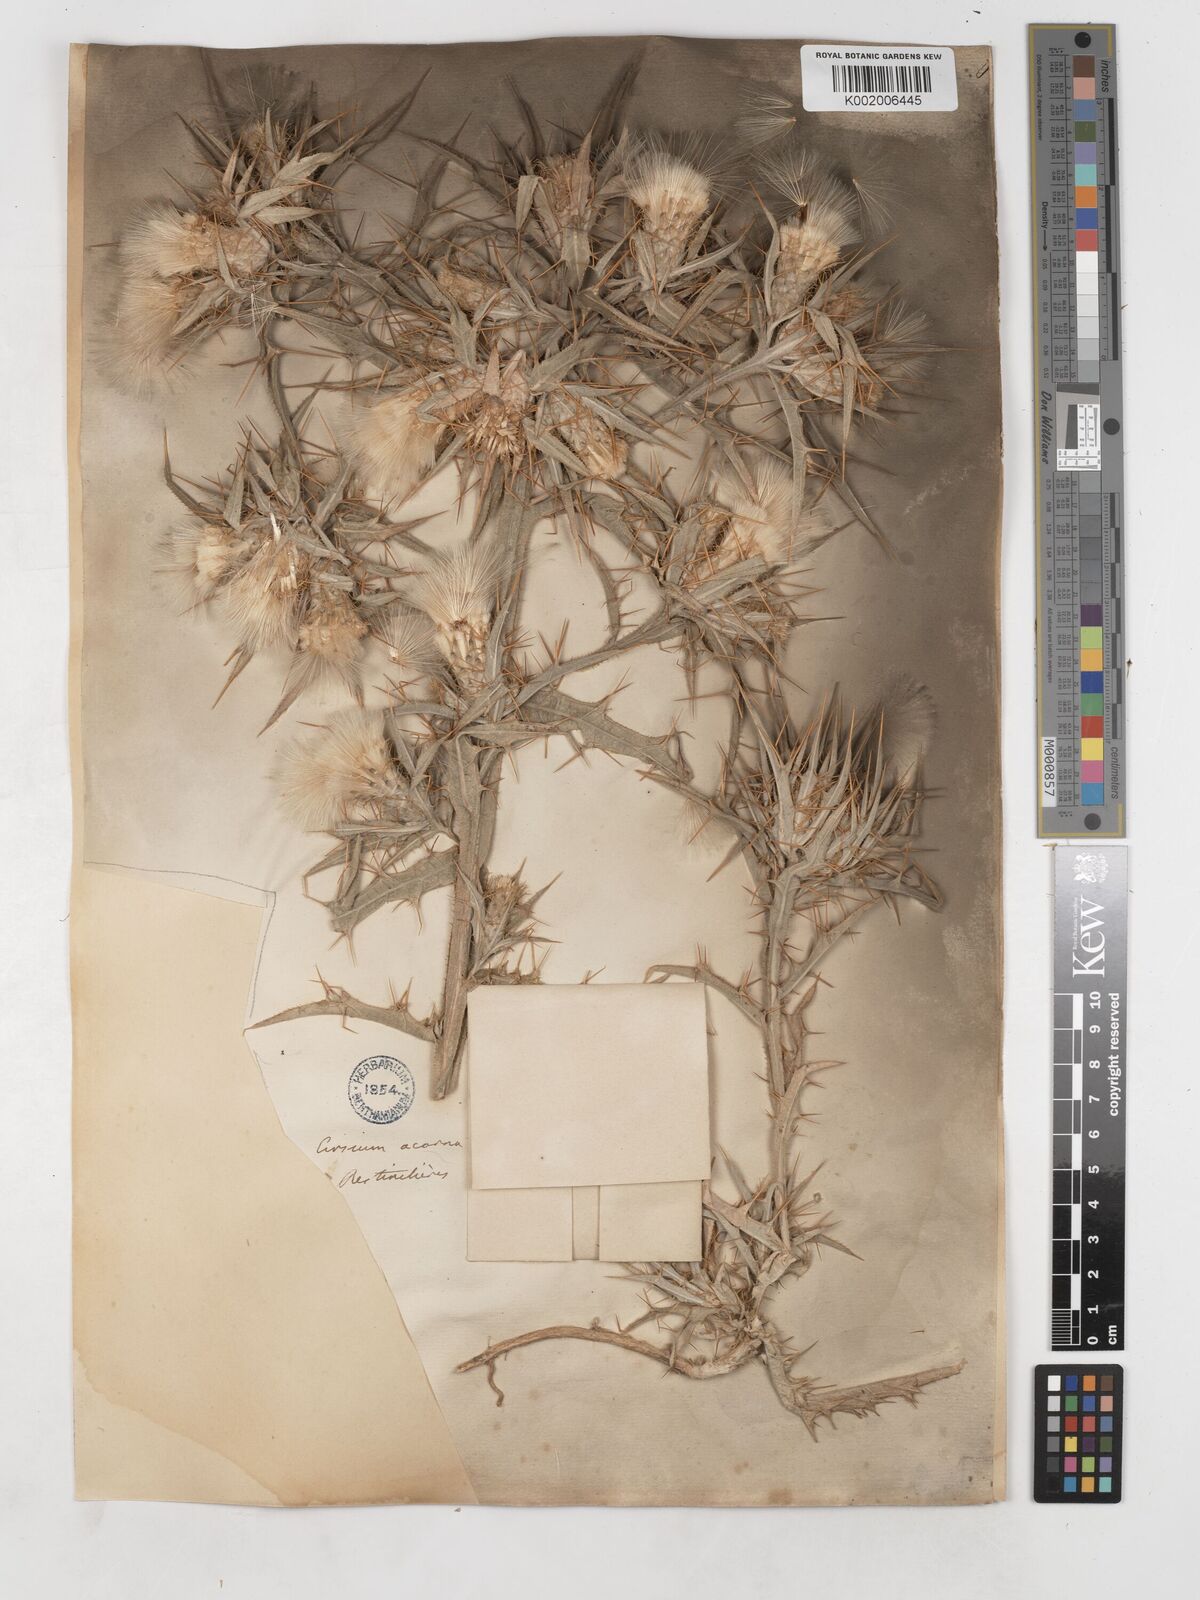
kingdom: Plantae
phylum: Tracheophyta
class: Magnoliopsida
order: Asterales
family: Asteraceae
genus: Picnomon
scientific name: Picnomon acarna
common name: Soldier thistle
